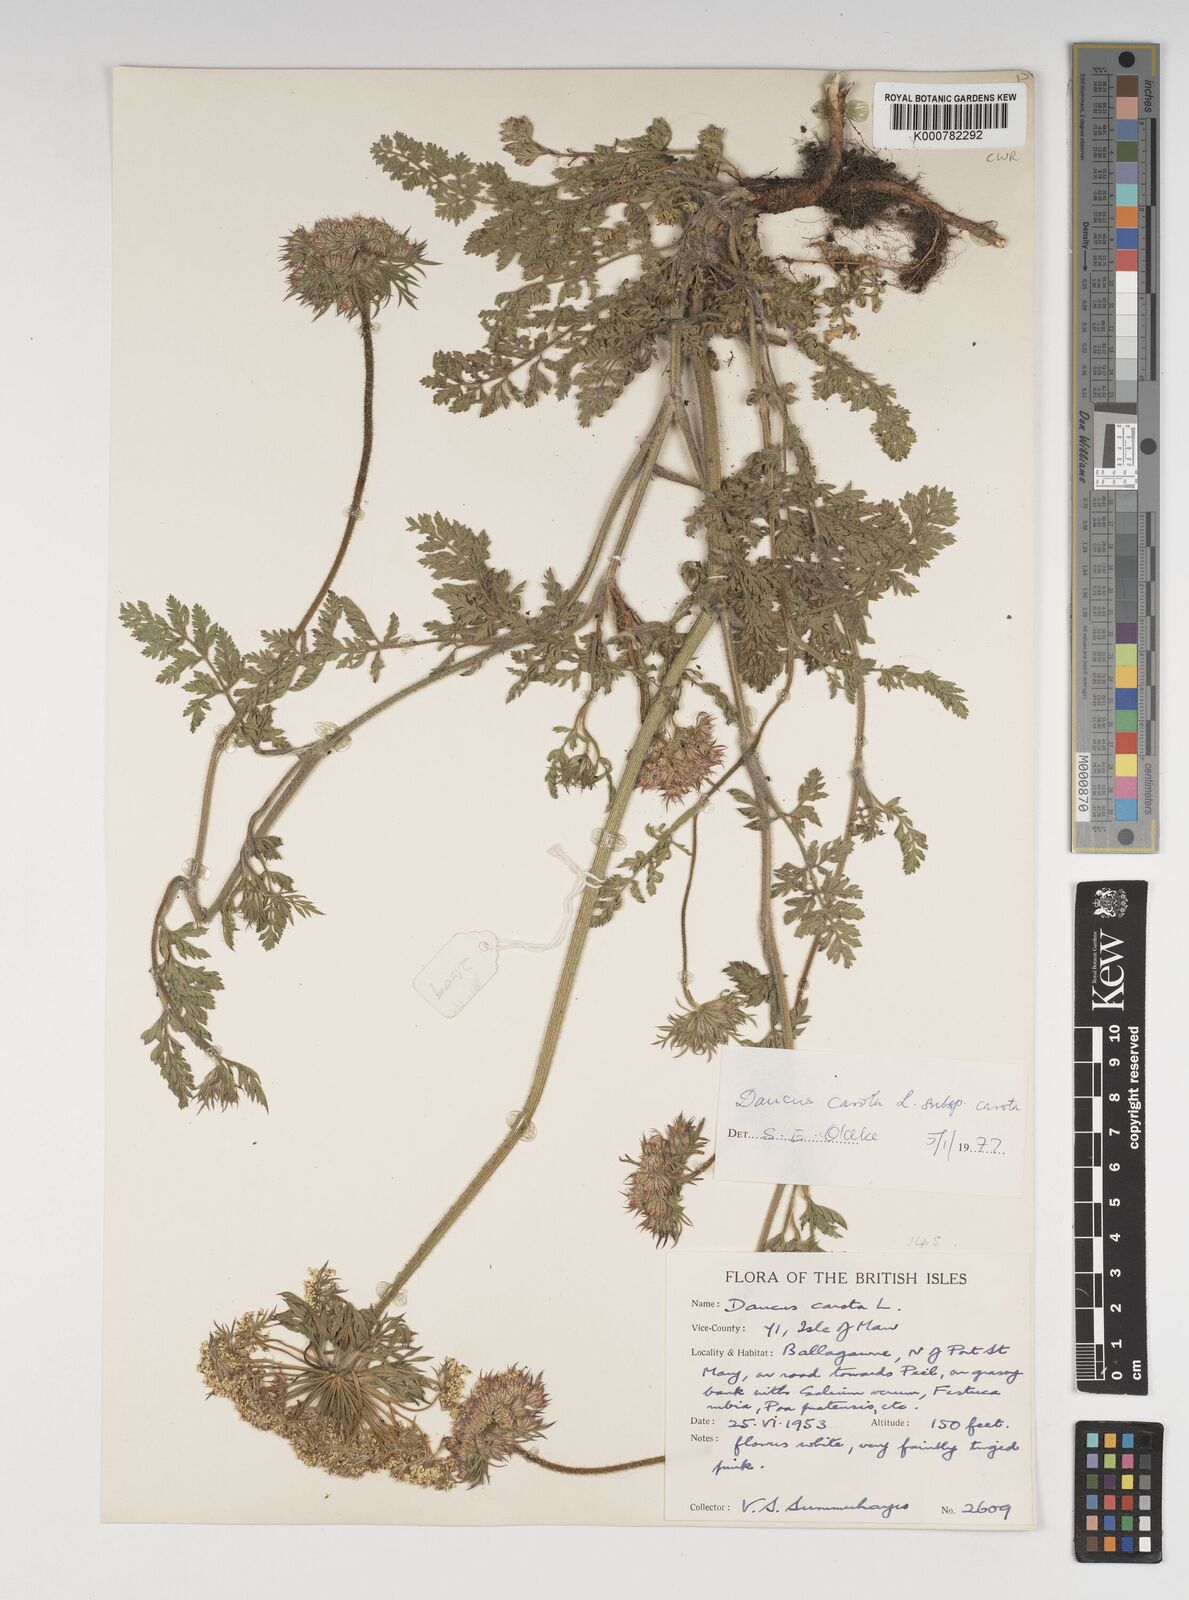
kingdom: Plantae
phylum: Tracheophyta
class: Magnoliopsida
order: Apiales
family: Apiaceae
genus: Daucus
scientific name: Daucus carota
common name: Wild carrot
